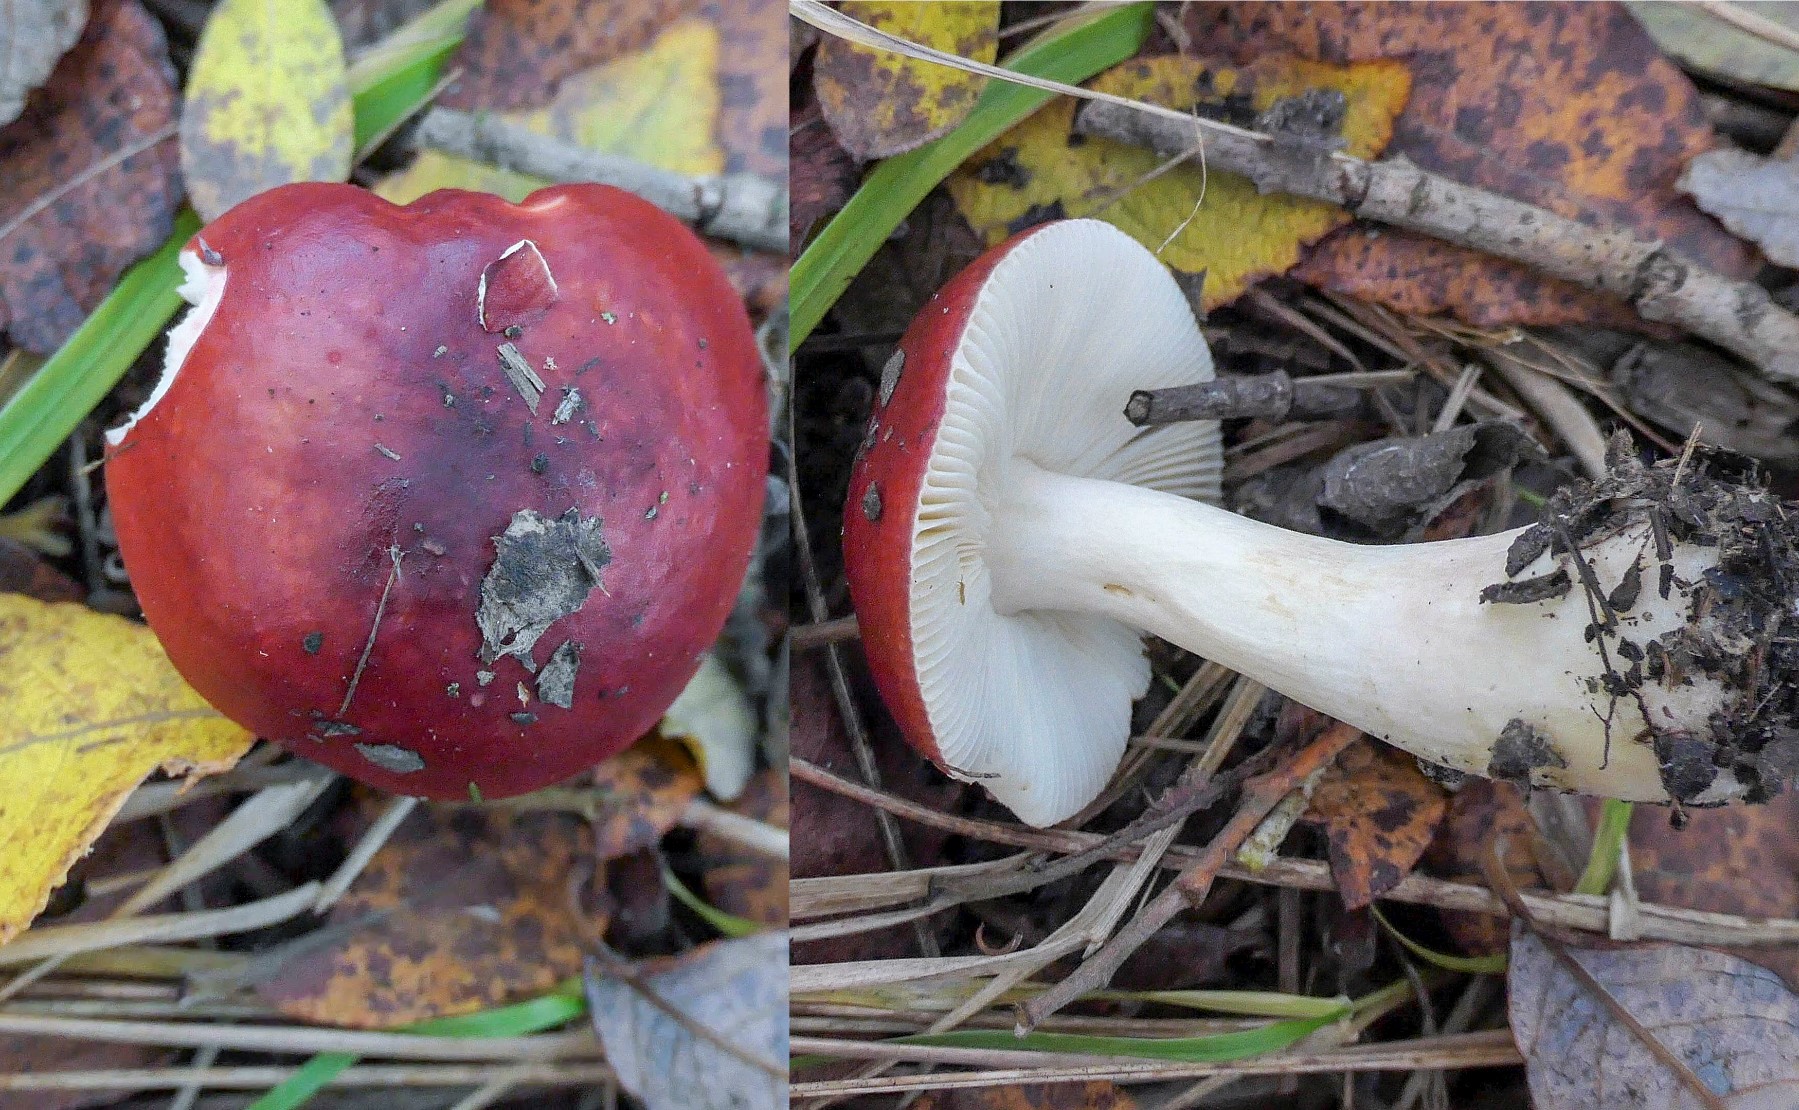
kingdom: Fungi
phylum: Basidiomycota
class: Agaricomycetes
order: Russulales
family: Russulaceae
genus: Russula
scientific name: Russula subrubens
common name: pile-skørhat
